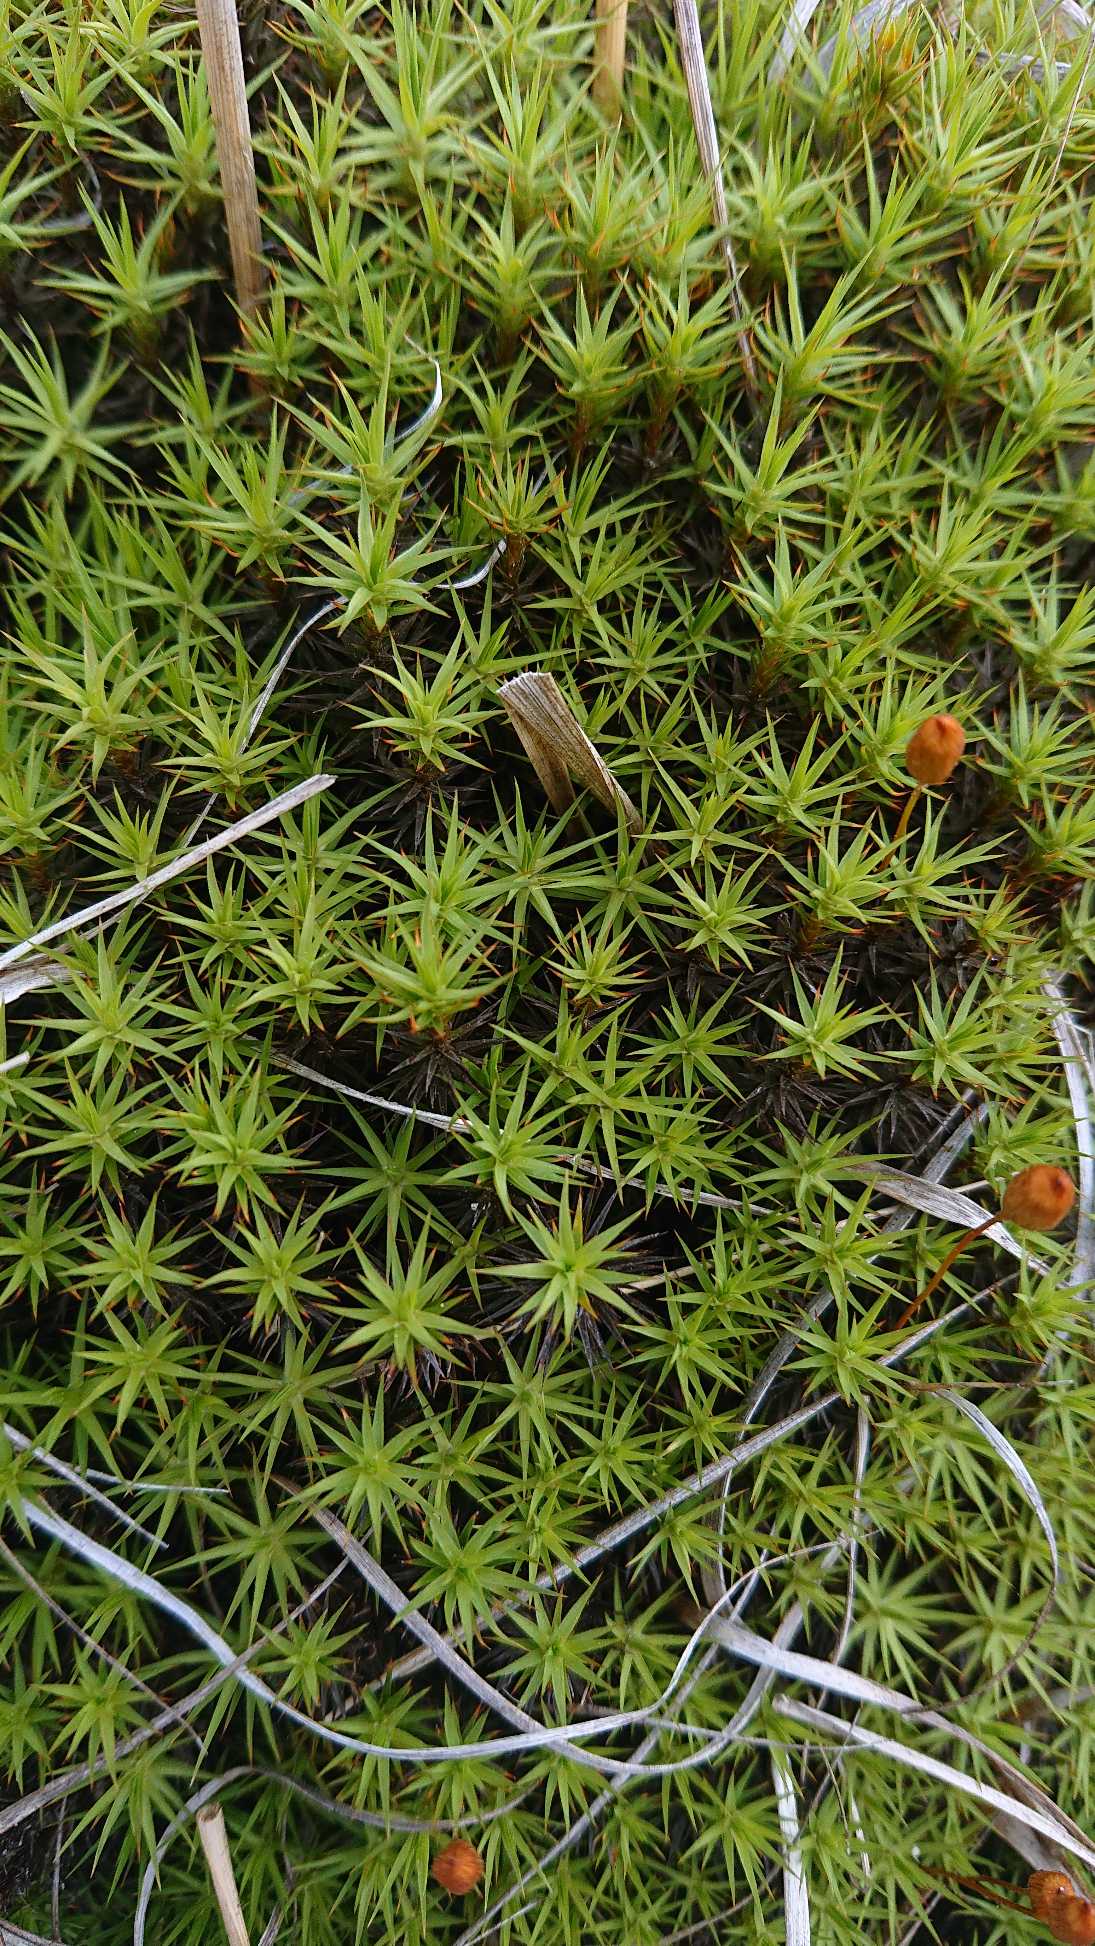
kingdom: Plantae
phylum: Bryophyta
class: Polytrichopsida
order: Polytrichales
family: Polytrichaceae
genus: Polytrichum
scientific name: Polytrichum
